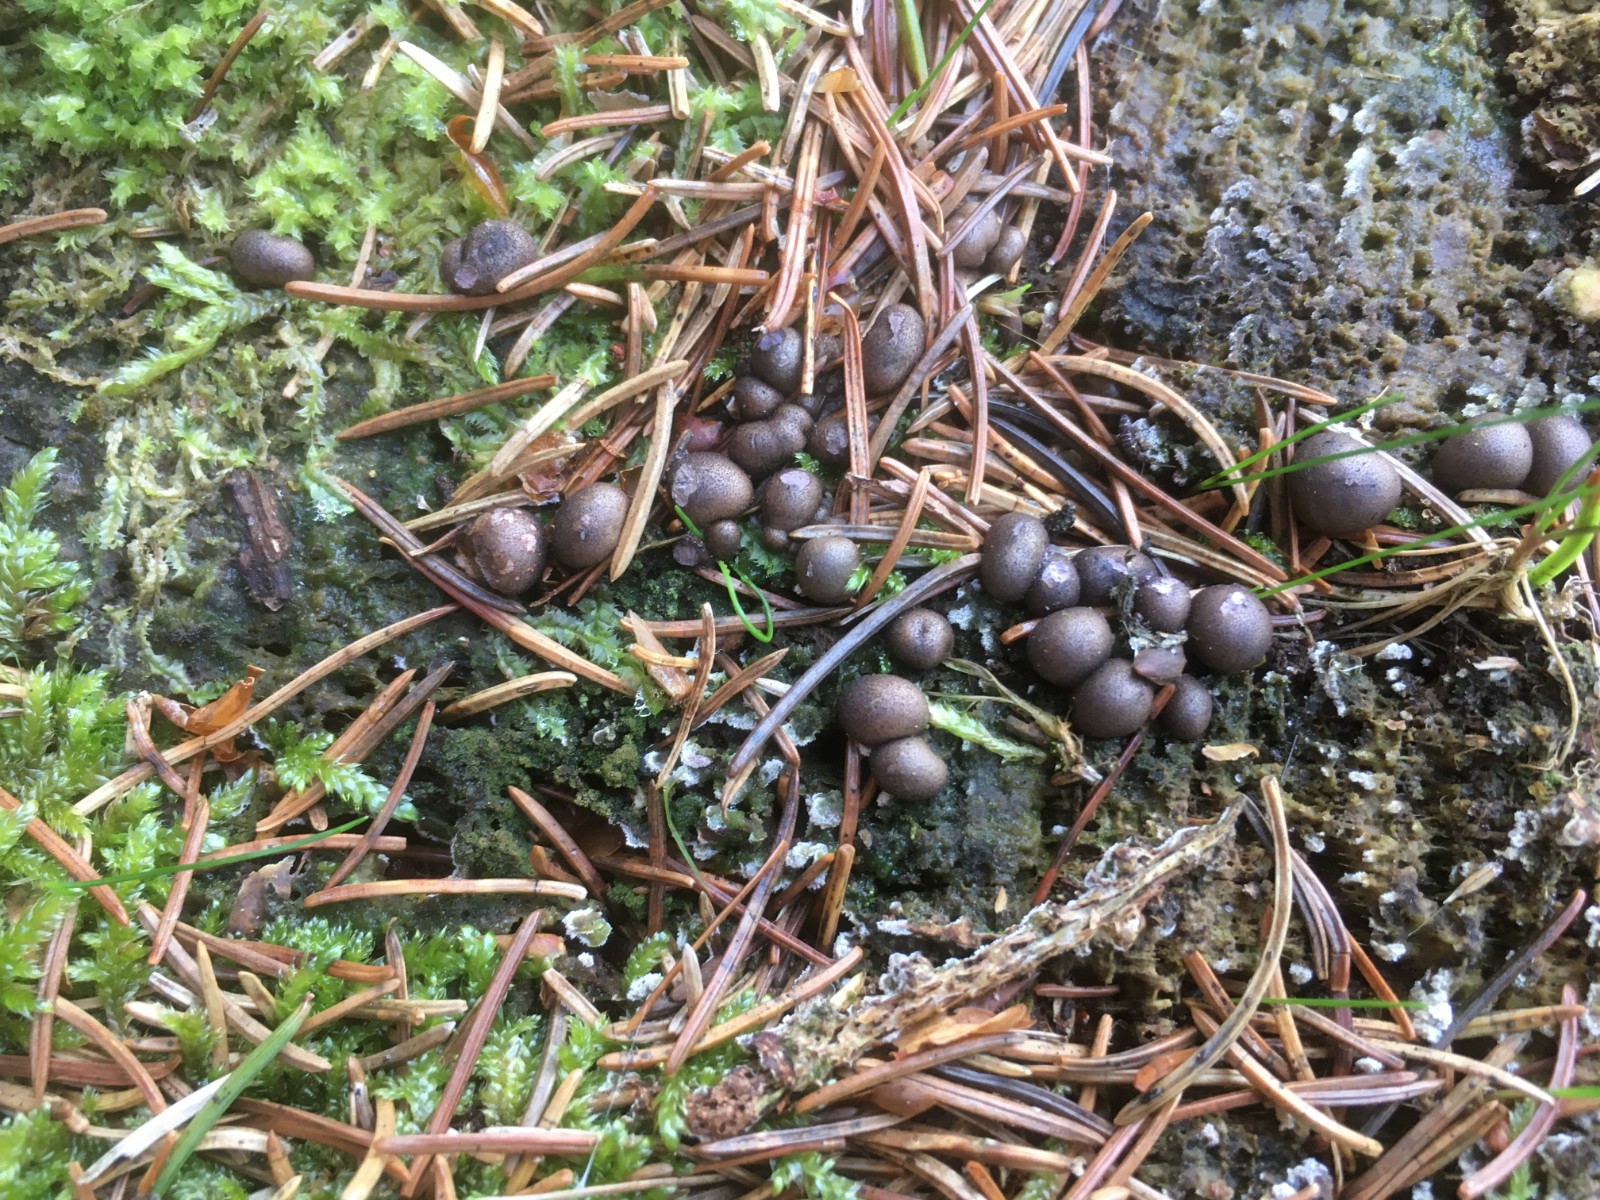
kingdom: Protozoa
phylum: Mycetozoa
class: Myxomycetes
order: Cribrariales
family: Tubiferaceae
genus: Lycogala
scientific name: Lycogala epidendrum
